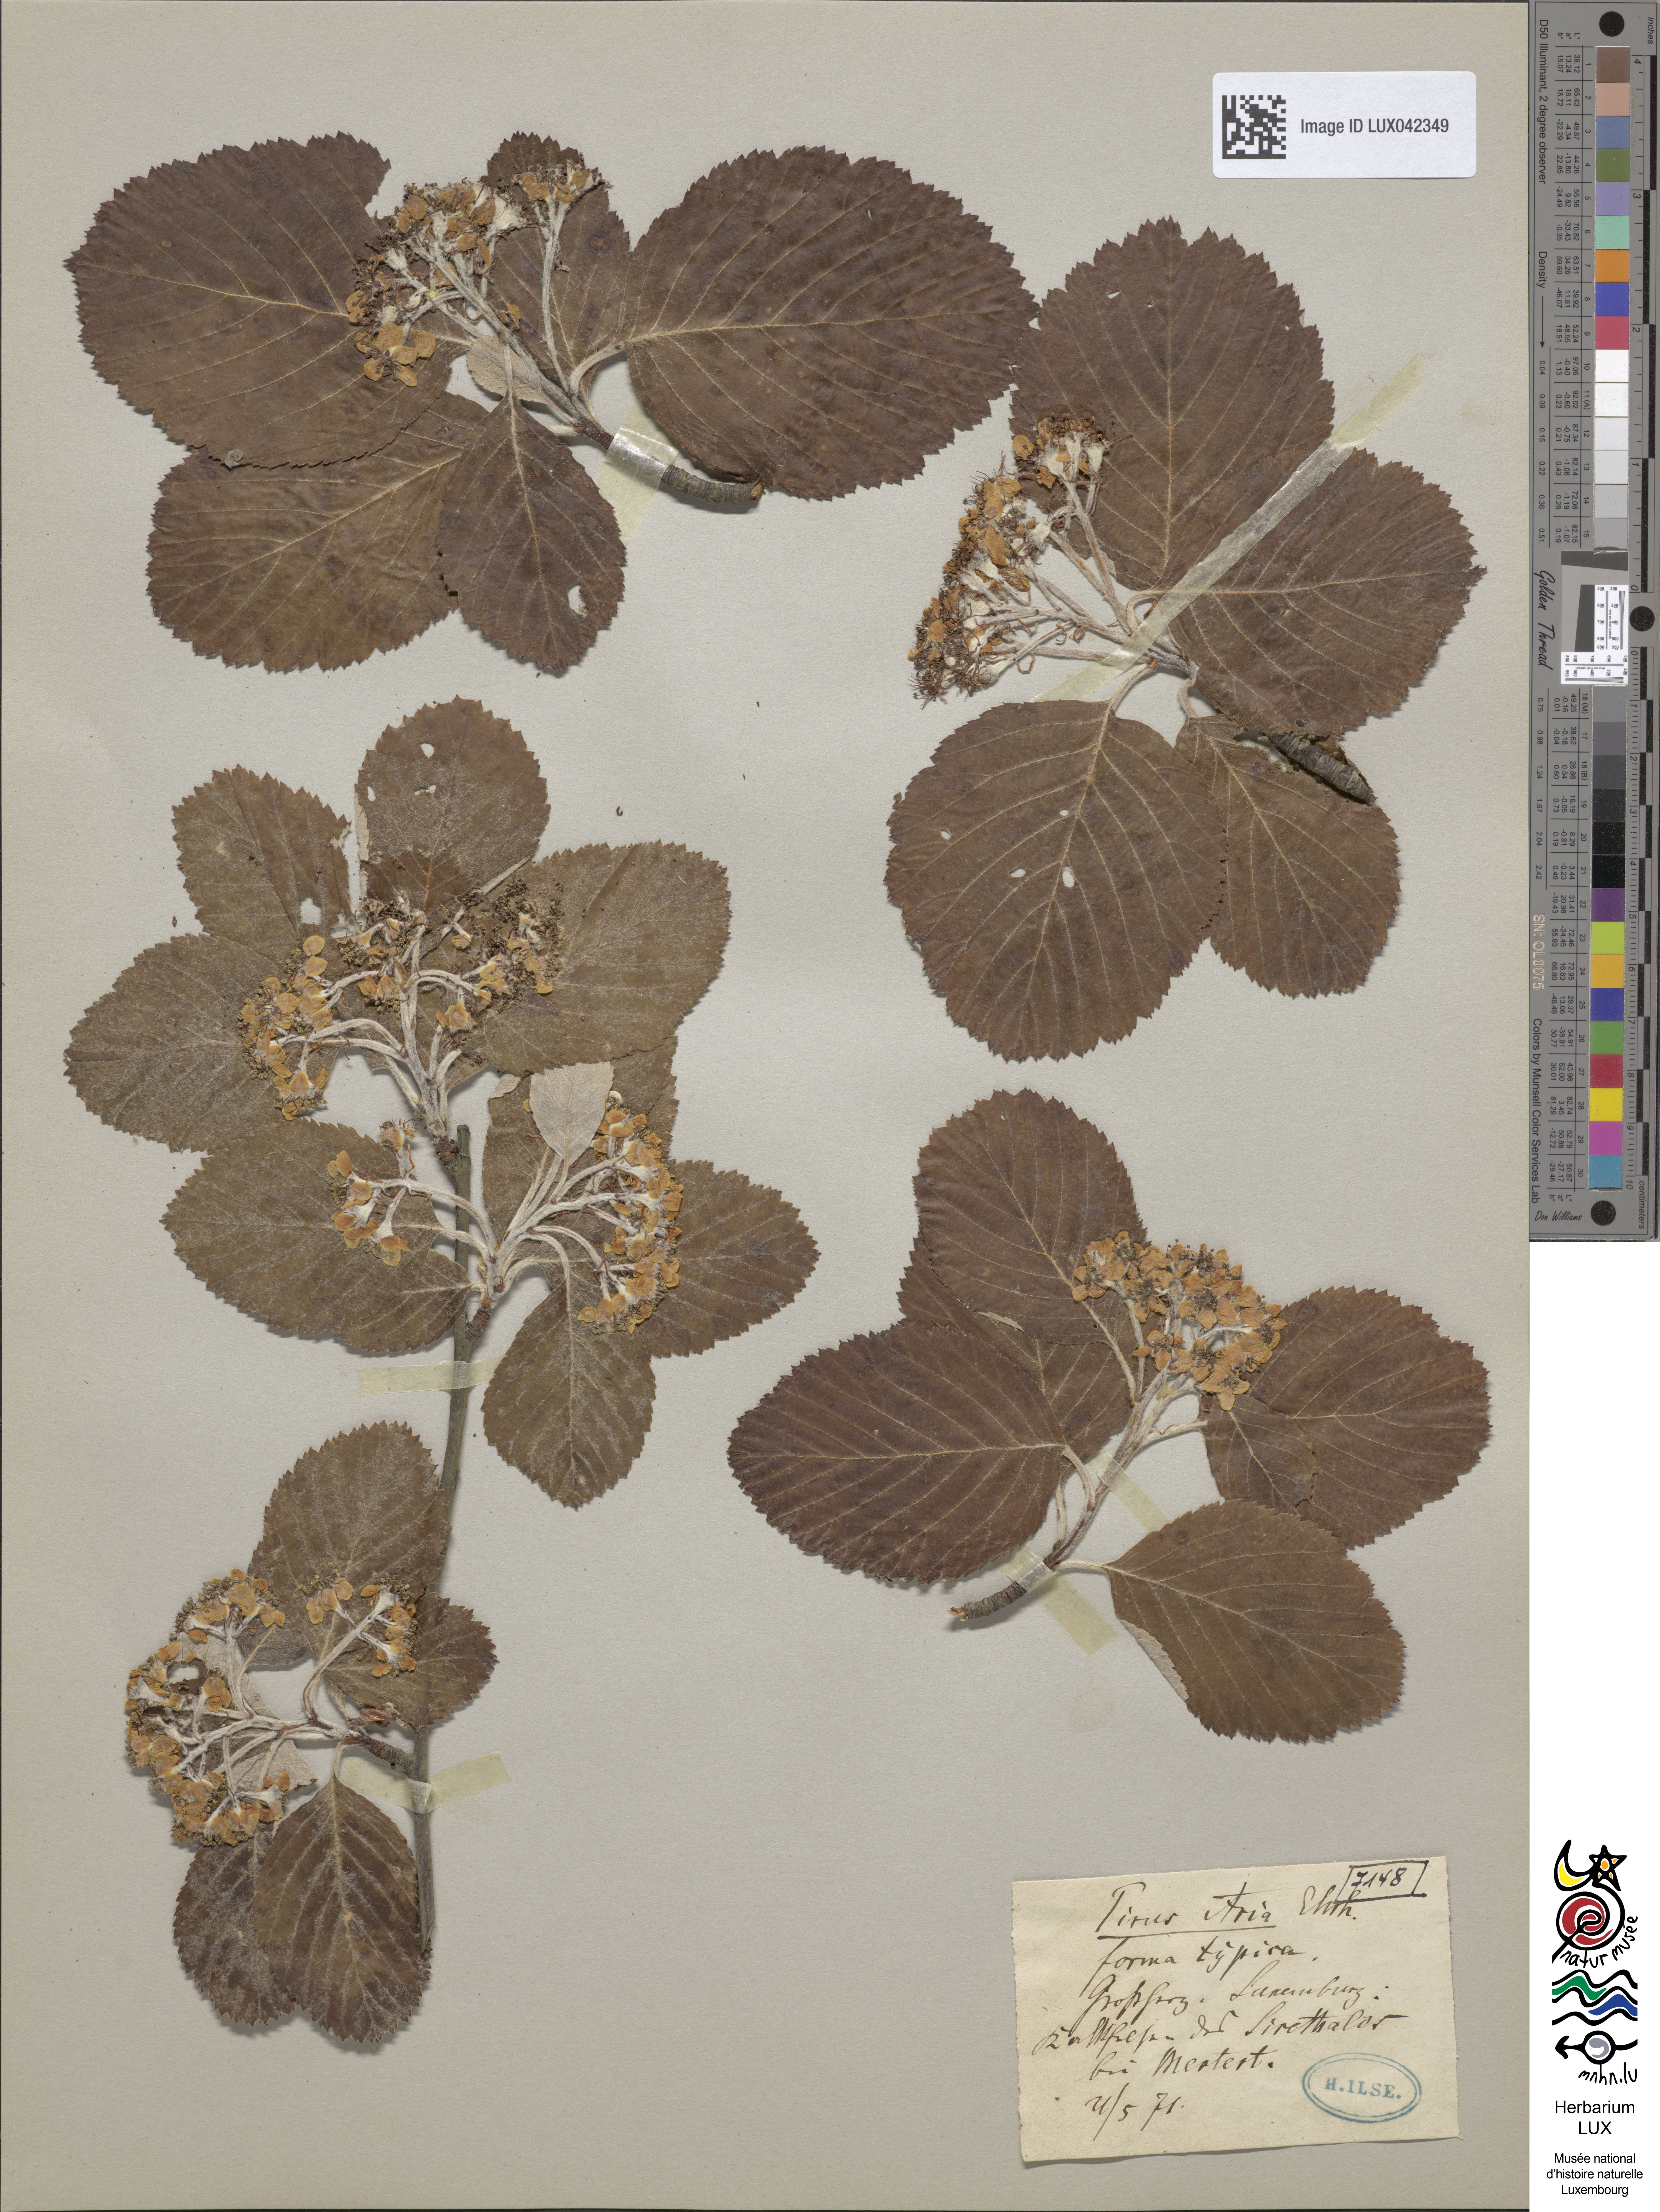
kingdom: Plantae
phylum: Tracheophyta
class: Magnoliopsida
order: Rosales
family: Rosaceae
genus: Aria
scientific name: Aria edulis
